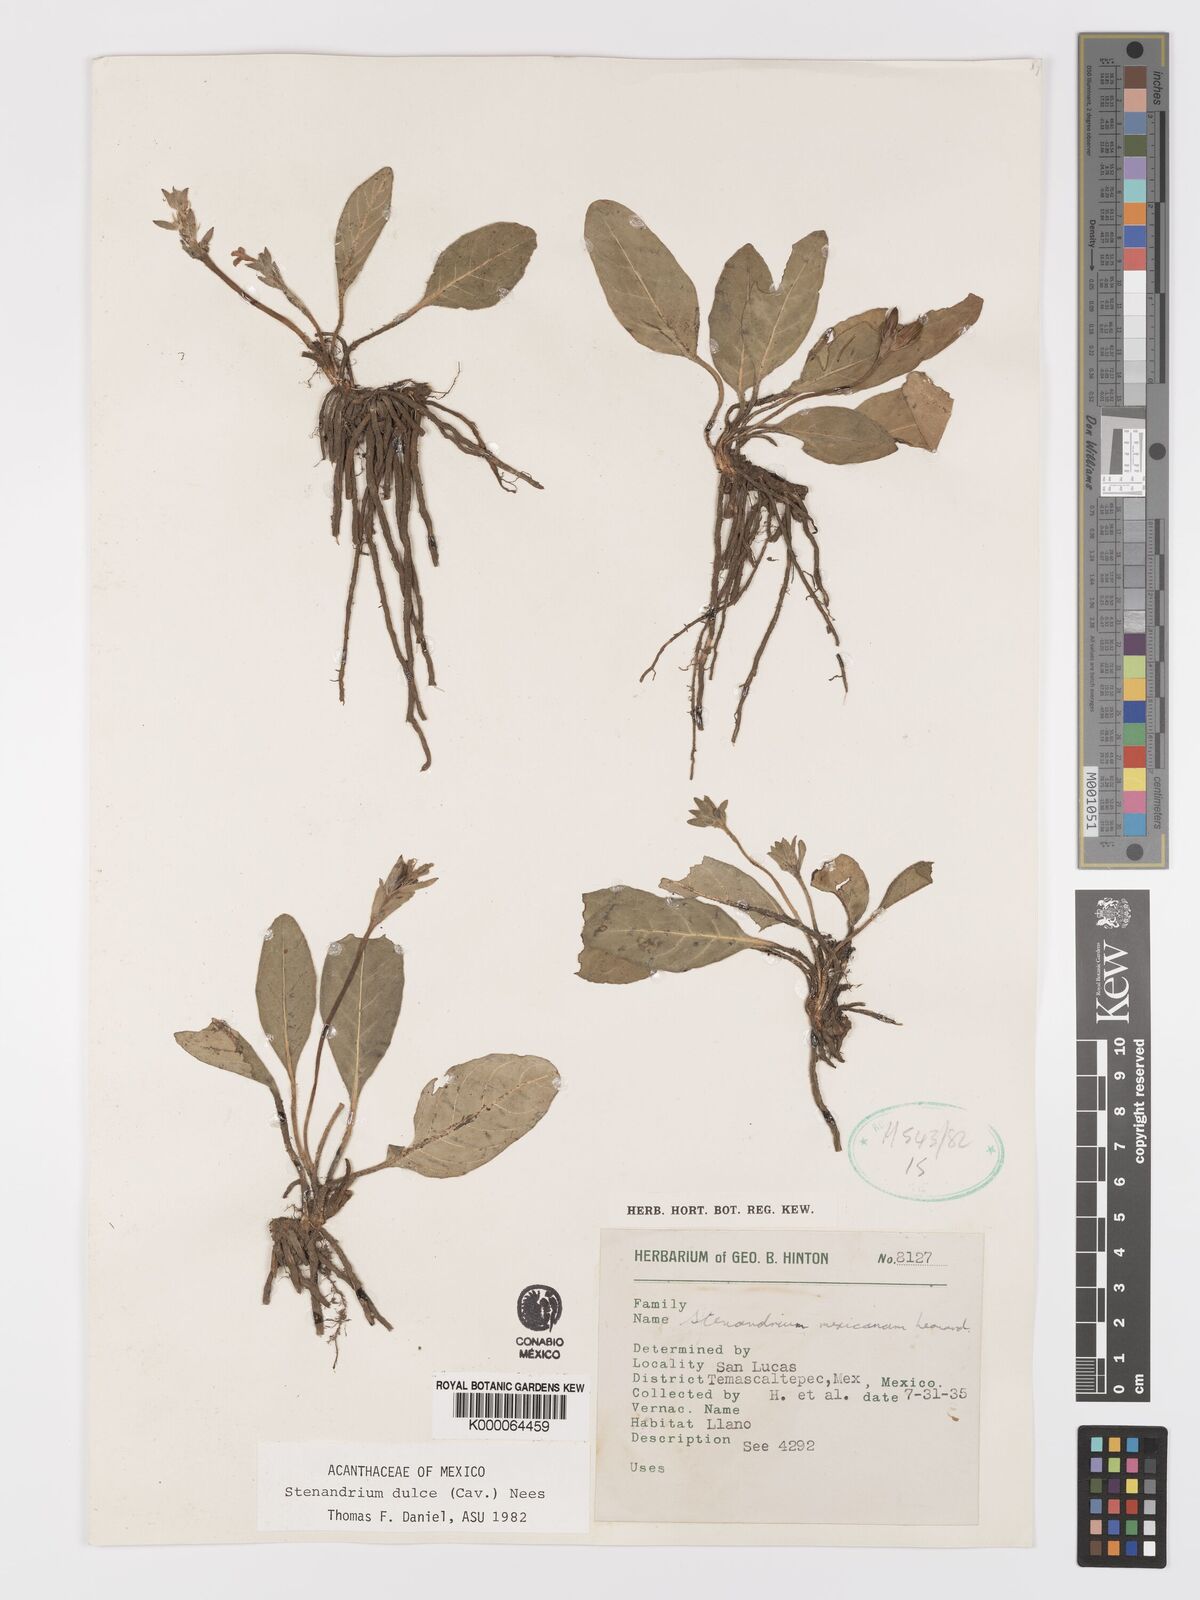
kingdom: Plantae
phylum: Tracheophyta
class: Magnoliopsida
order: Lamiales
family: Acanthaceae
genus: Stenandrium
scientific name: Stenandrium dulce
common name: Pinklet
